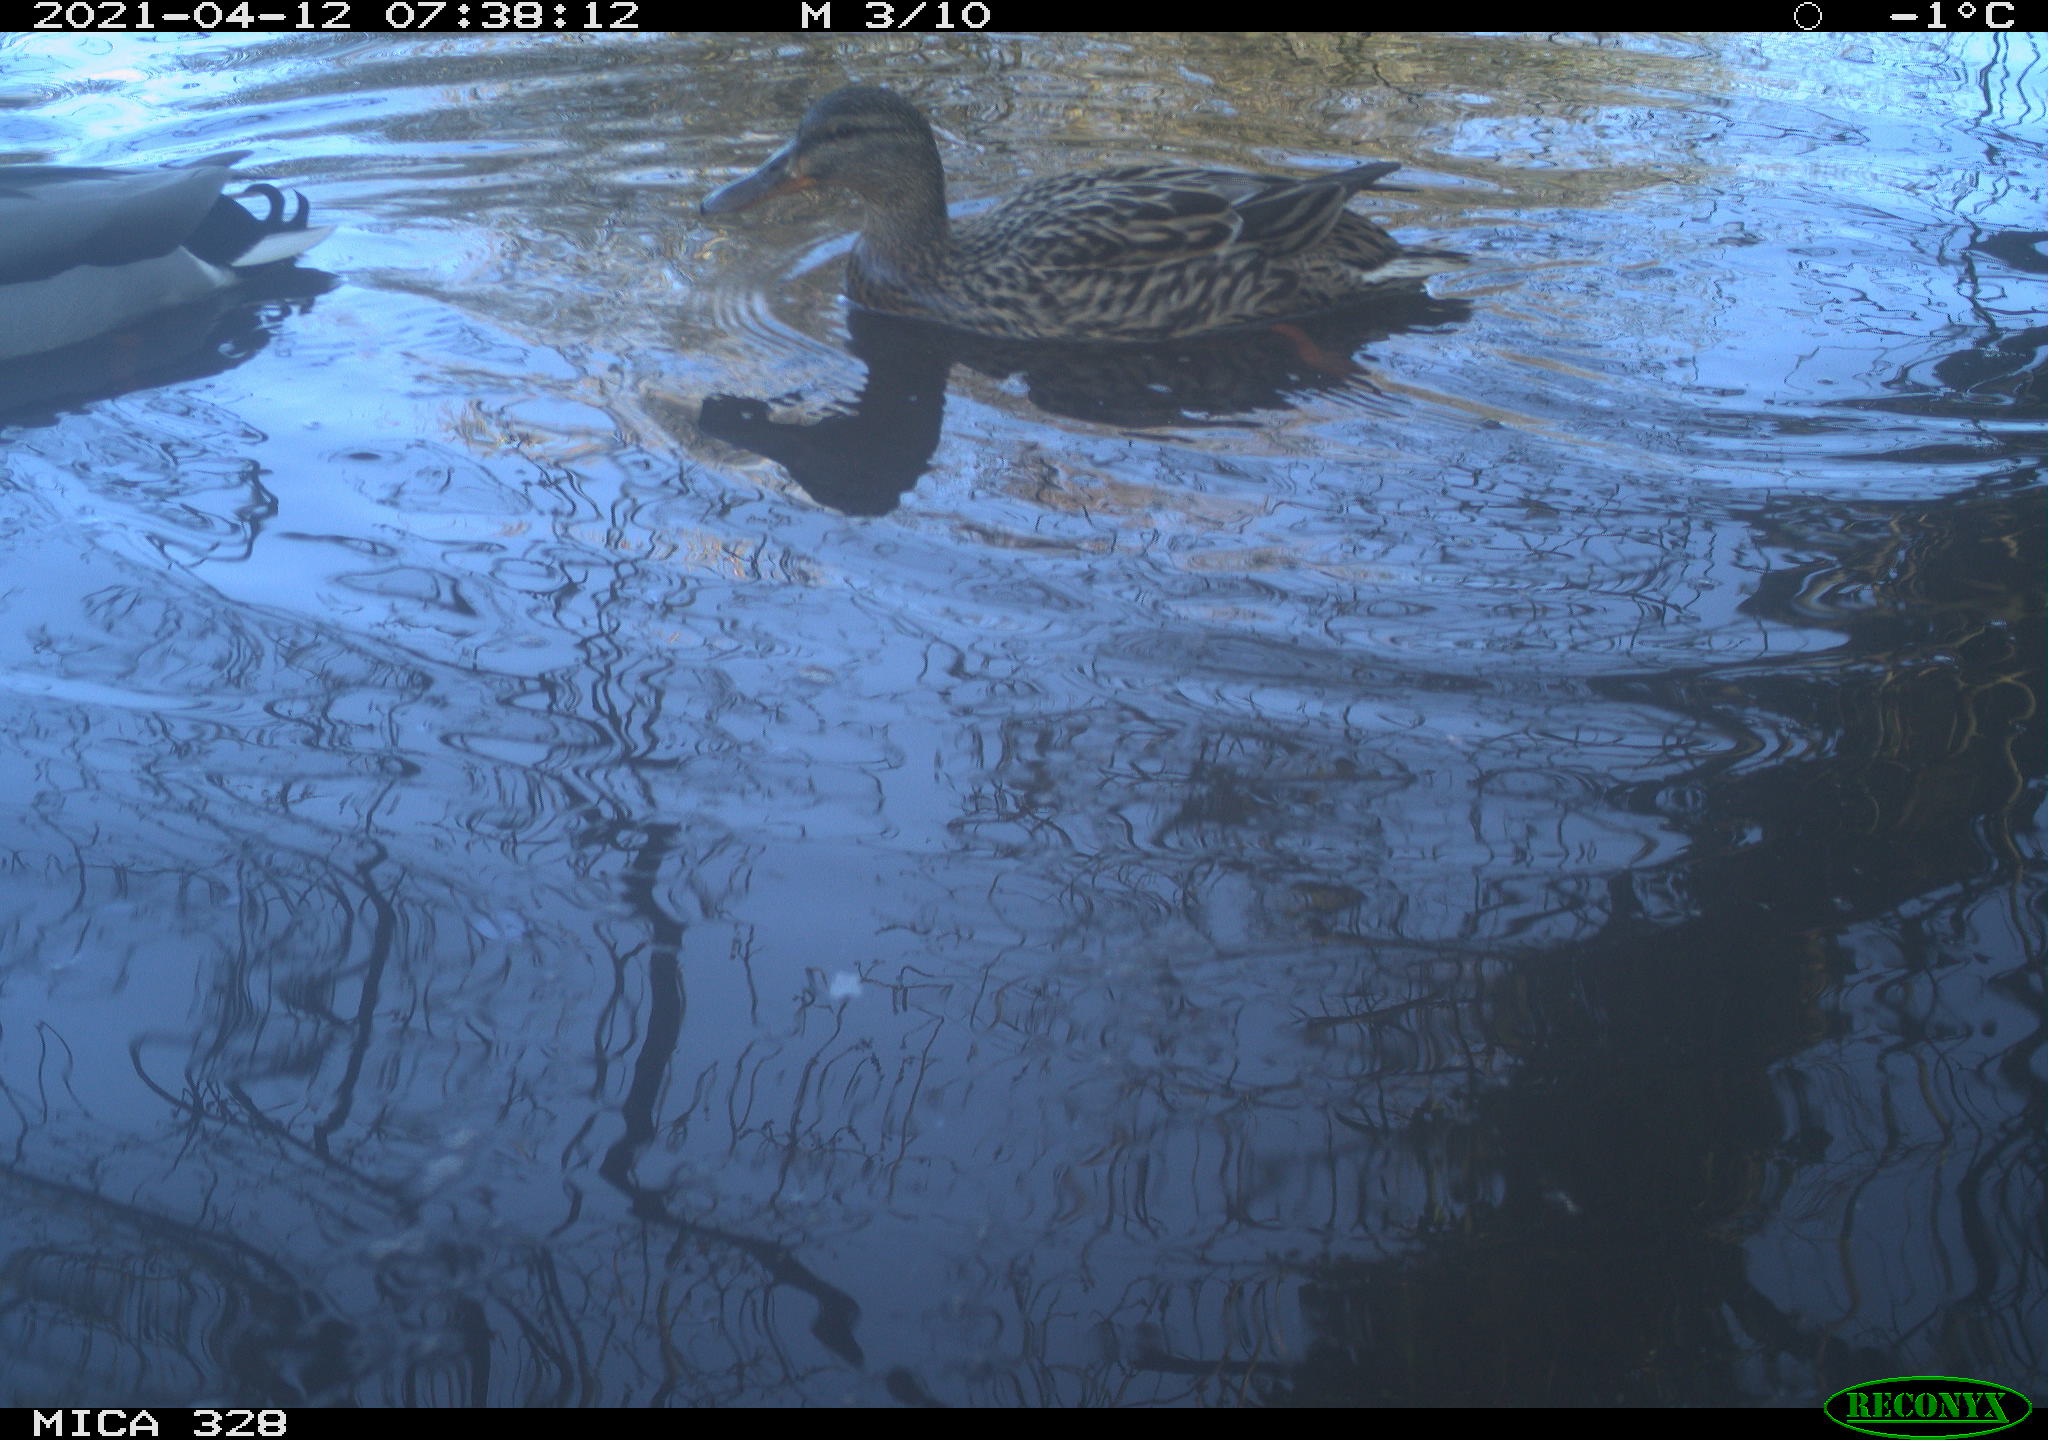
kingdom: Animalia
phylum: Chordata
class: Aves
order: Anseriformes
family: Anatidae
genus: Anas
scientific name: Anas platyrhynchos
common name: Mallard
